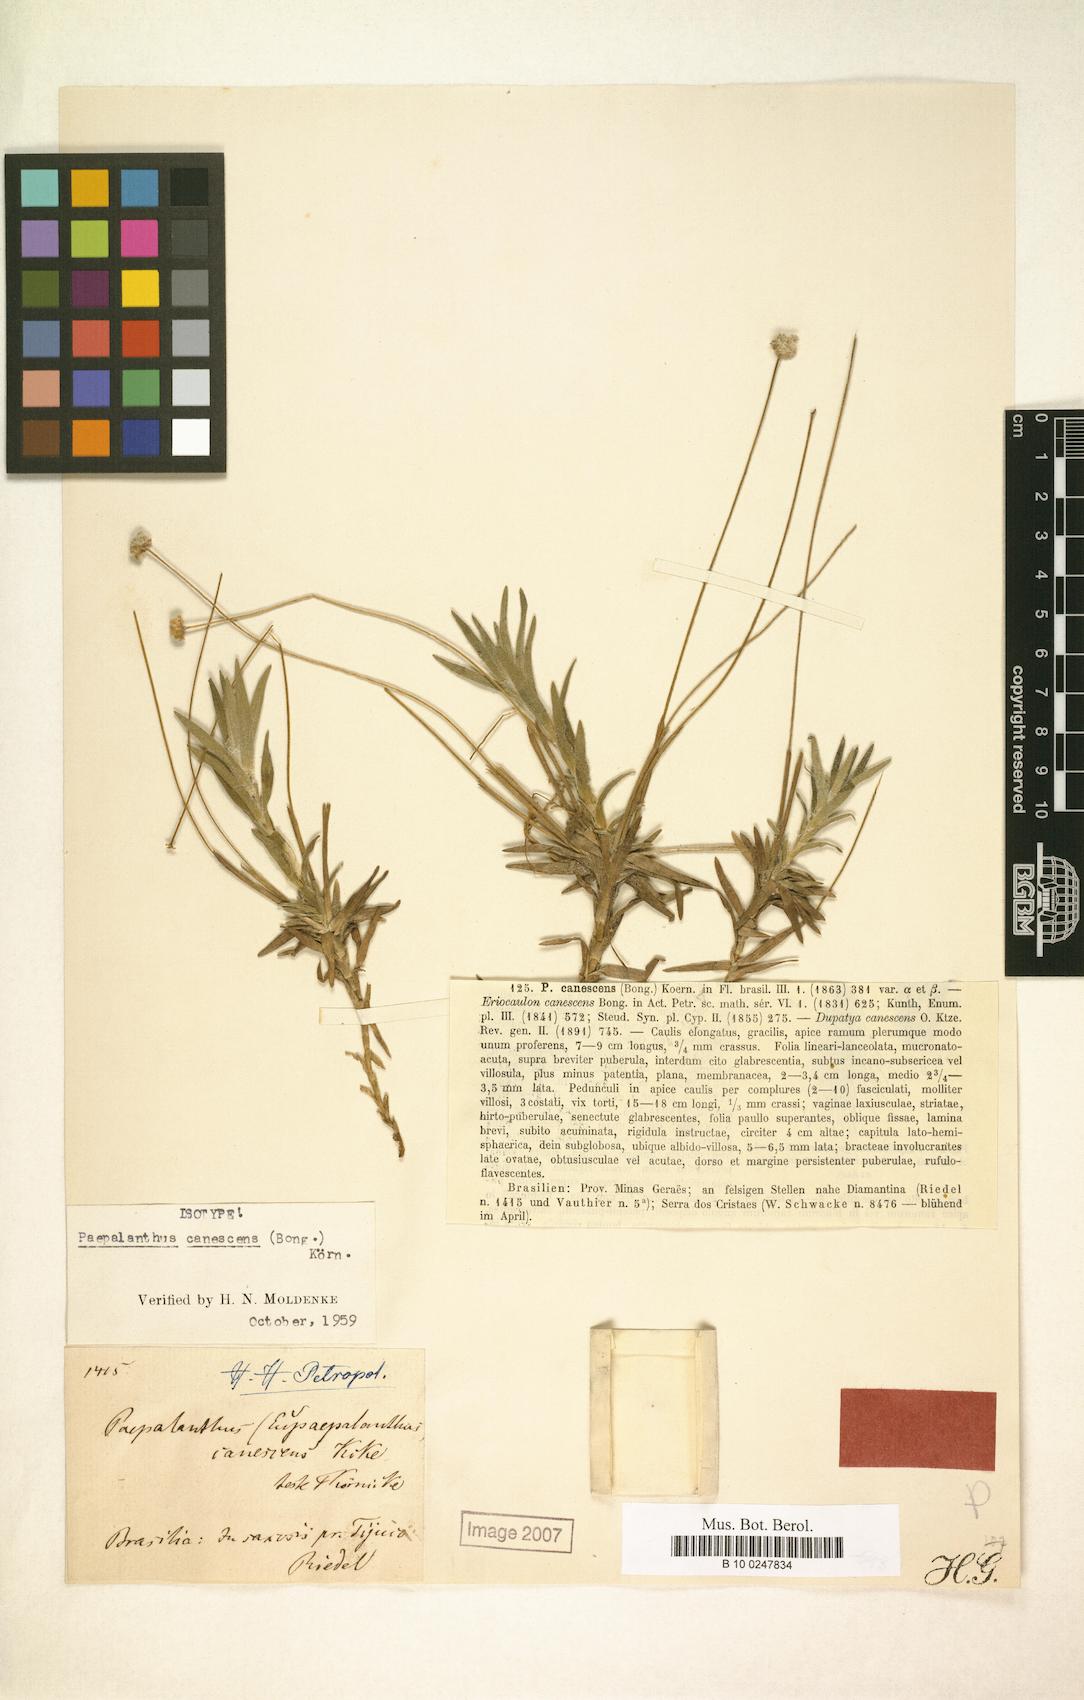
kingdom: Plantae
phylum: Tracheophyta
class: Liliopsida
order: Poales
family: Eriocaulaceae
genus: Paepalanthus
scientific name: Paepalanthus canescens
